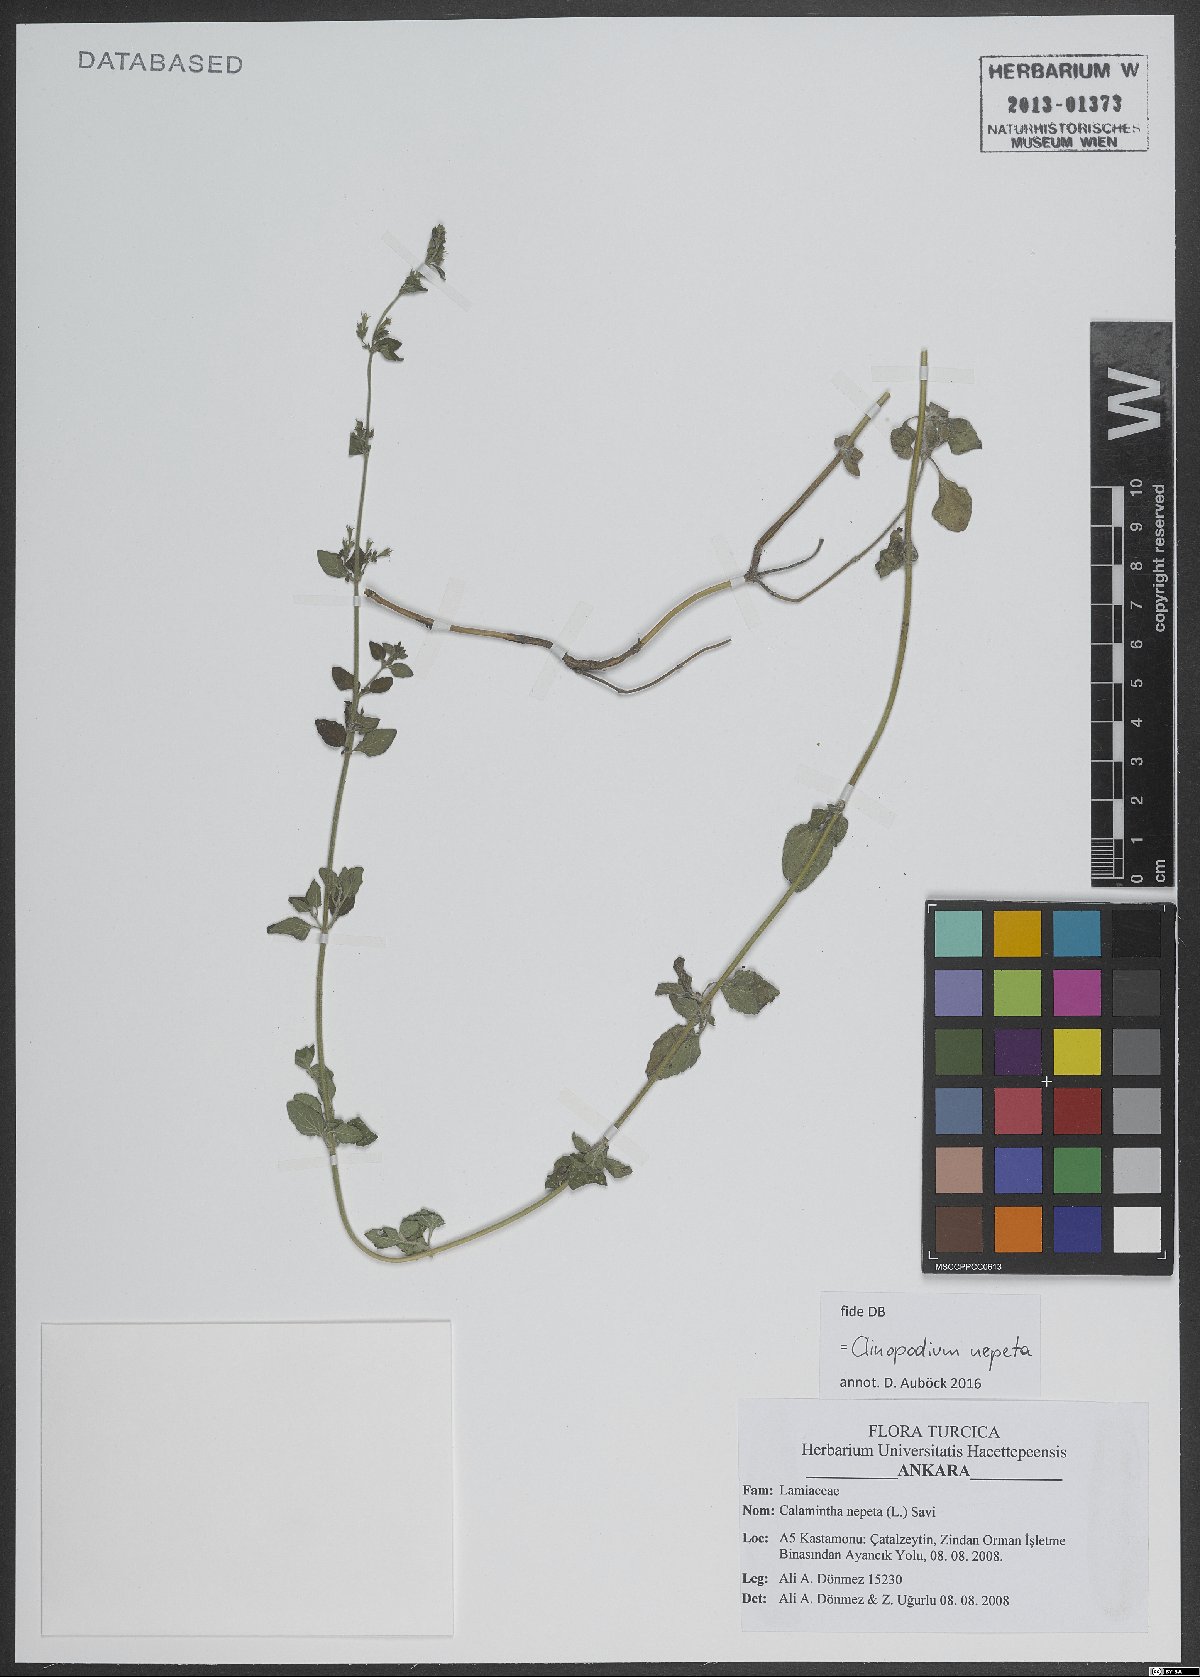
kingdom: Plantae
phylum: Tracheophyta
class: Magnoliopsida
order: Lamiales
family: Lamiaceae
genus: Clinopodium
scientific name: Clinopodium nepeta
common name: Lesser calamint
